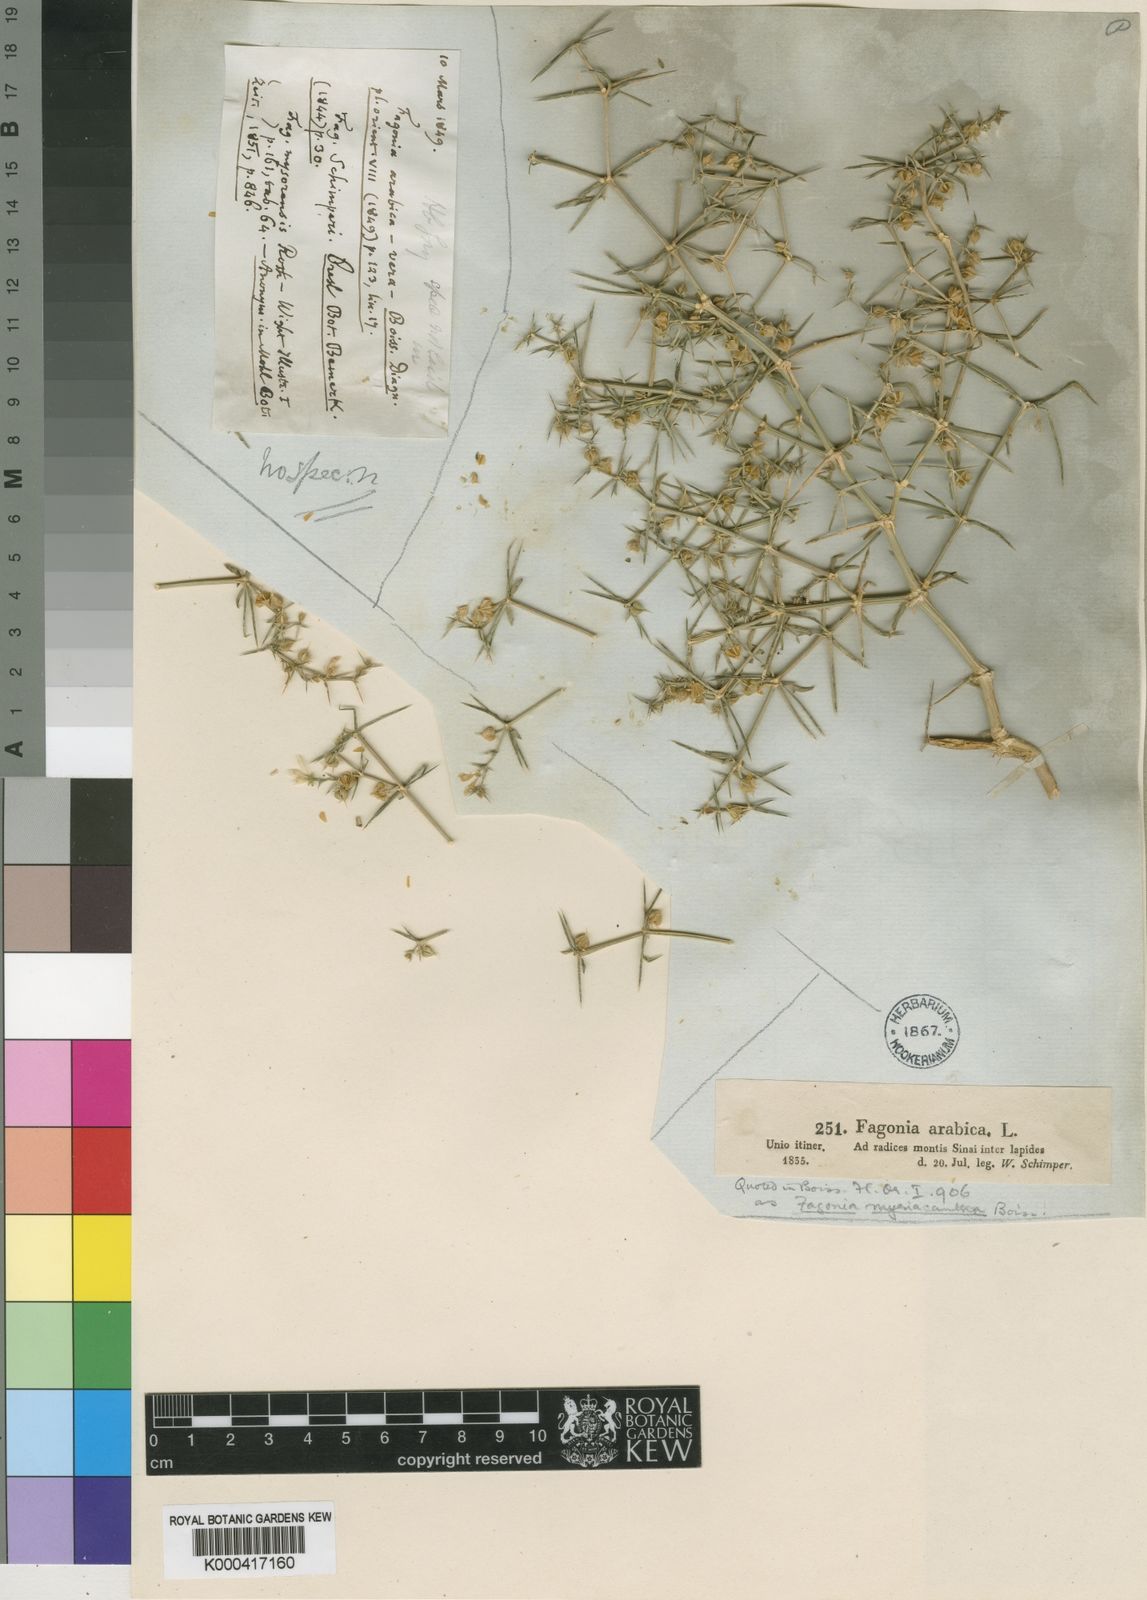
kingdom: Plantae
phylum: Tracheophyta
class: Magnoliopsida
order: Zygophyllales
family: Zygophyllaceae
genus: Fagonia
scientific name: Fagonia bruguieri
